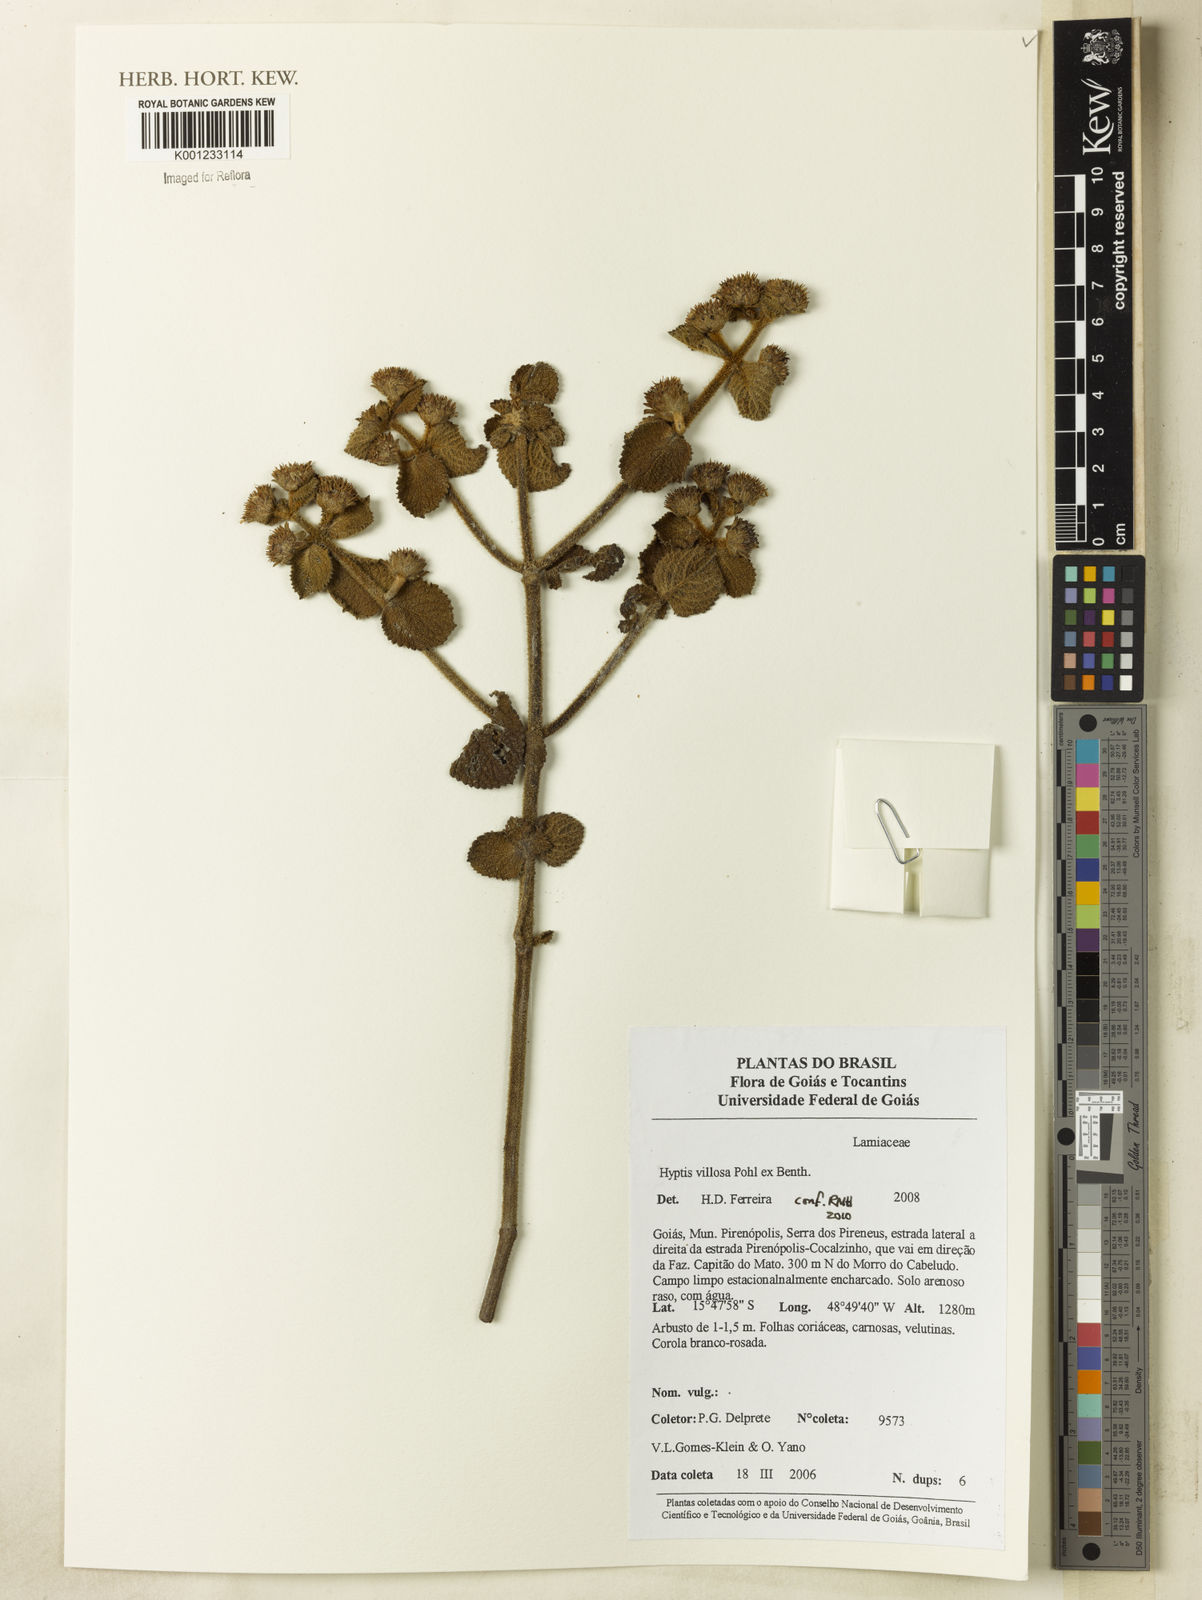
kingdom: Plantae
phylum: Tracheophyta
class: Magnoliopsida
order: Lamiales
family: Lamiaceae
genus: Hyptis
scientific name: Hyptis villosa
